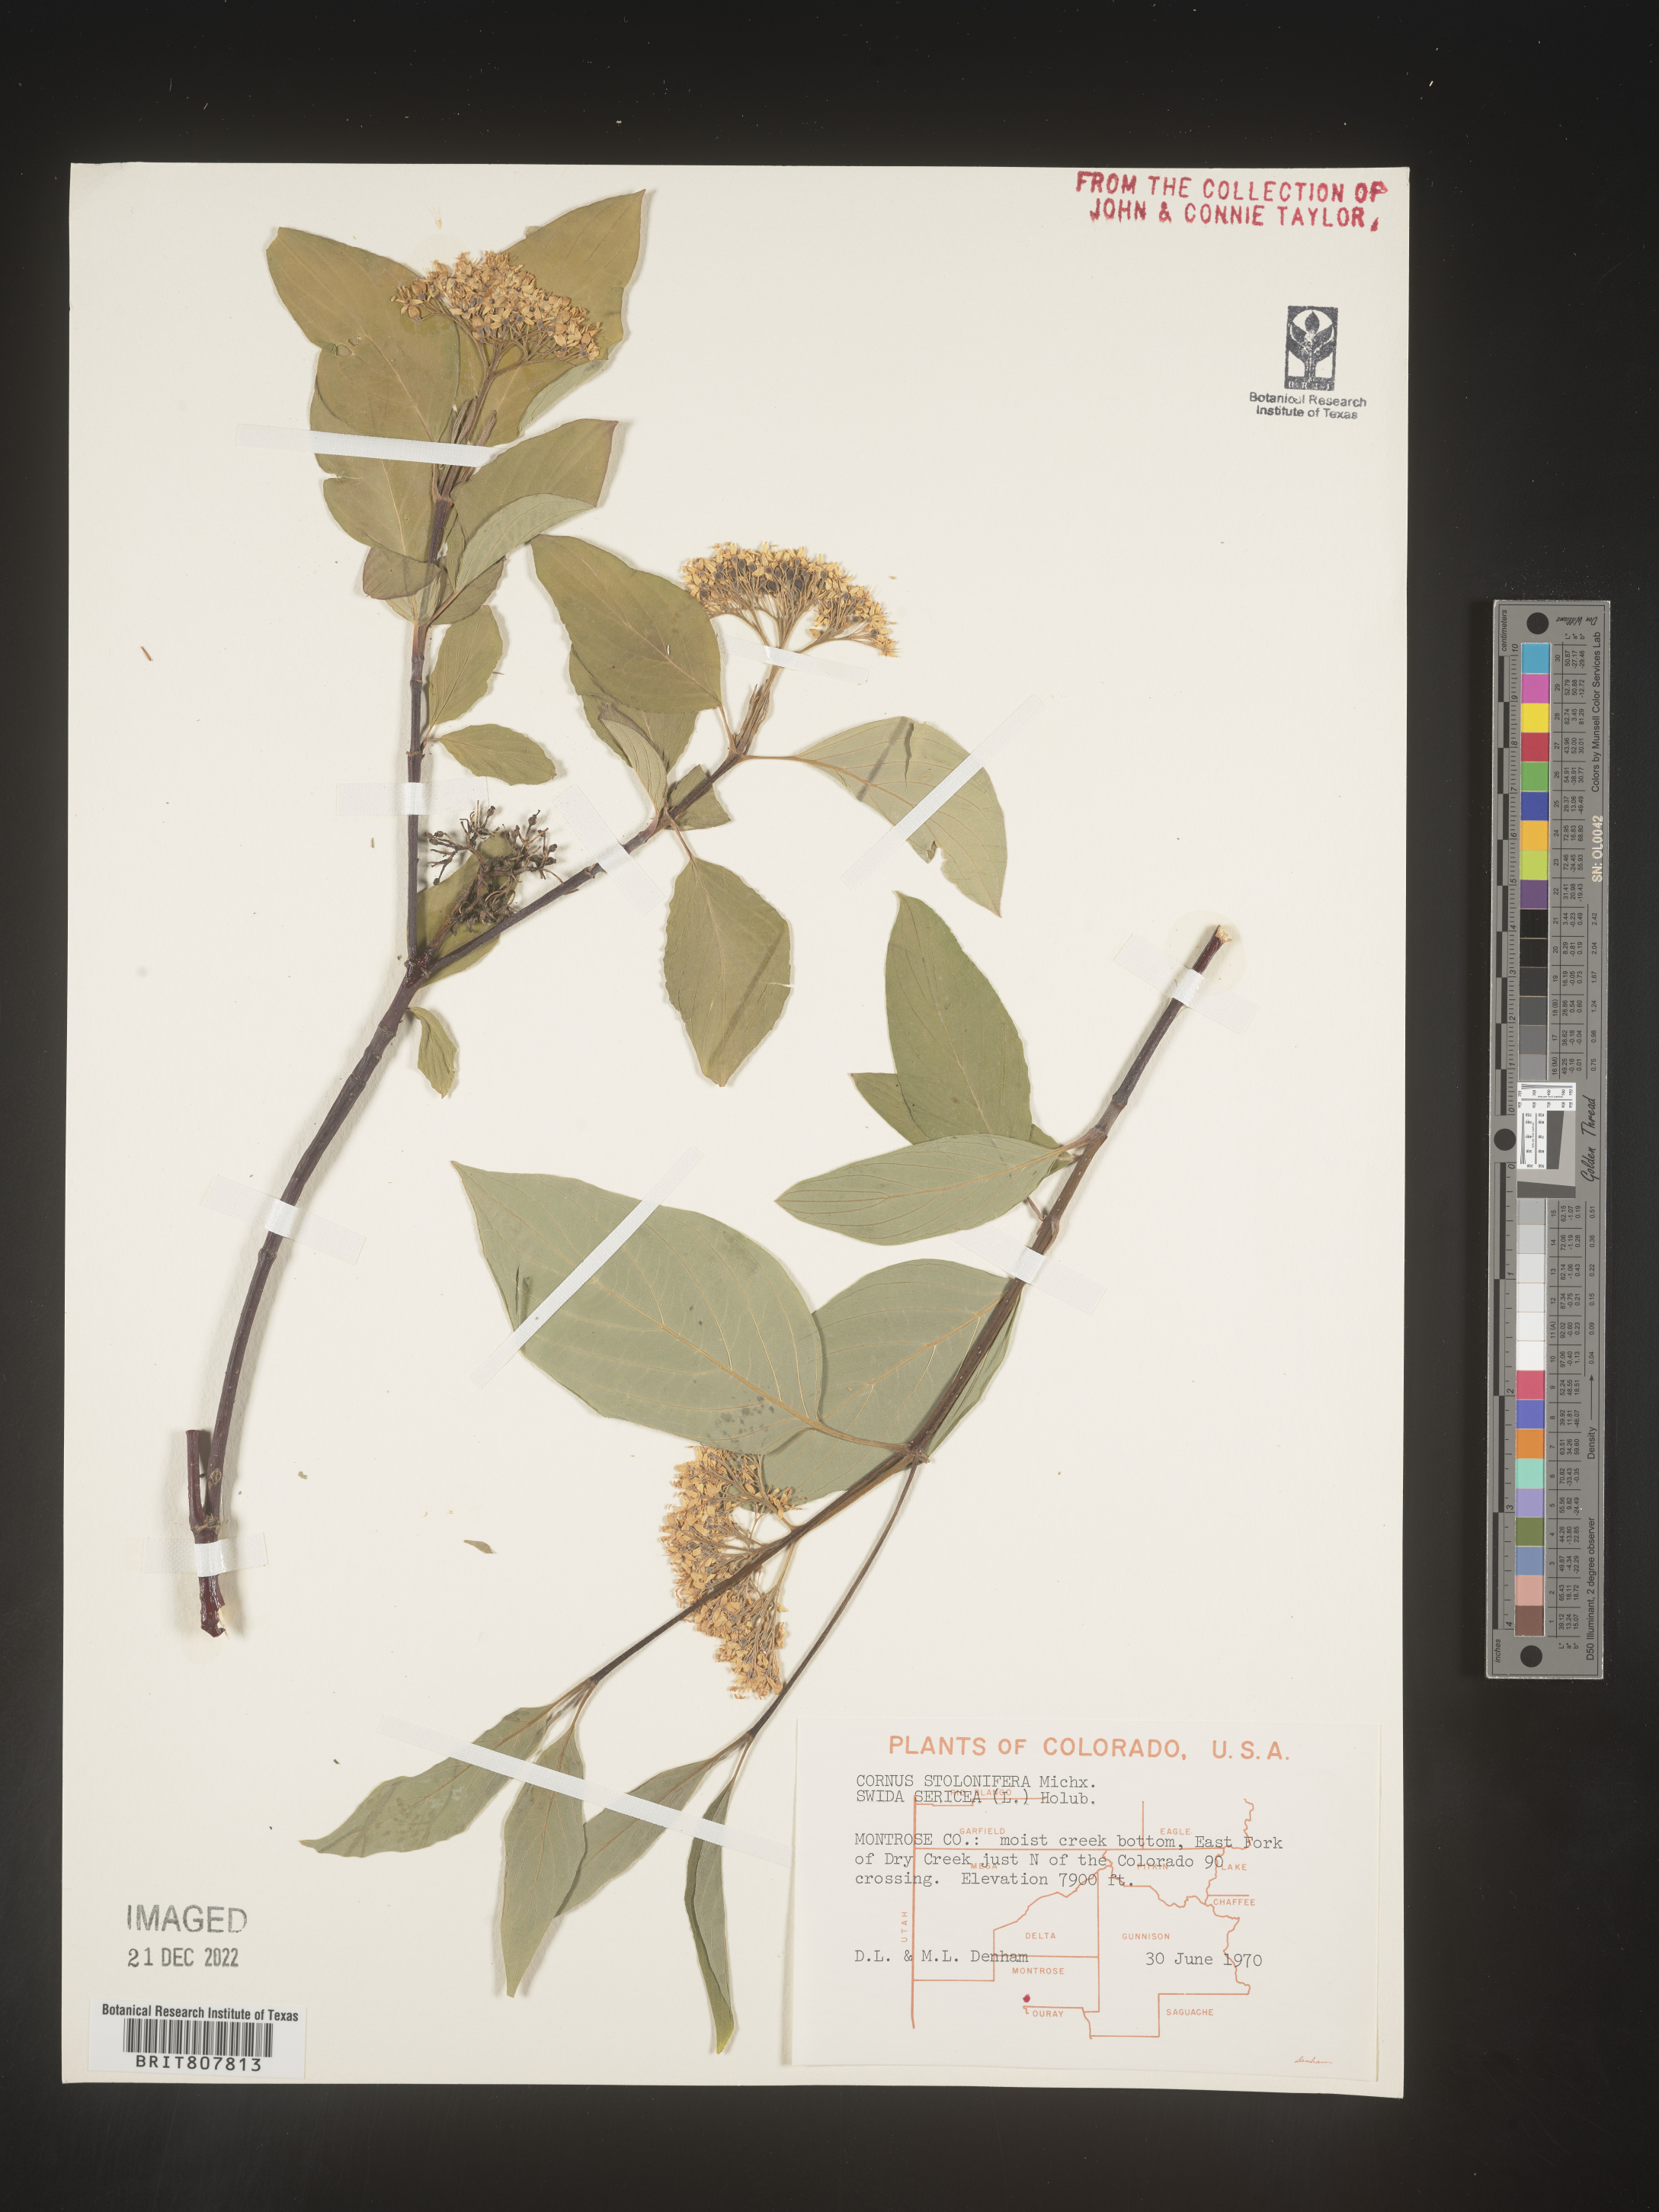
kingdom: Plantae
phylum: Tracheophyta
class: Magnoliopsida
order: Cornales
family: Cornaceae
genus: Cornus
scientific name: Cornus sericea
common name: Red-osier dogwood
